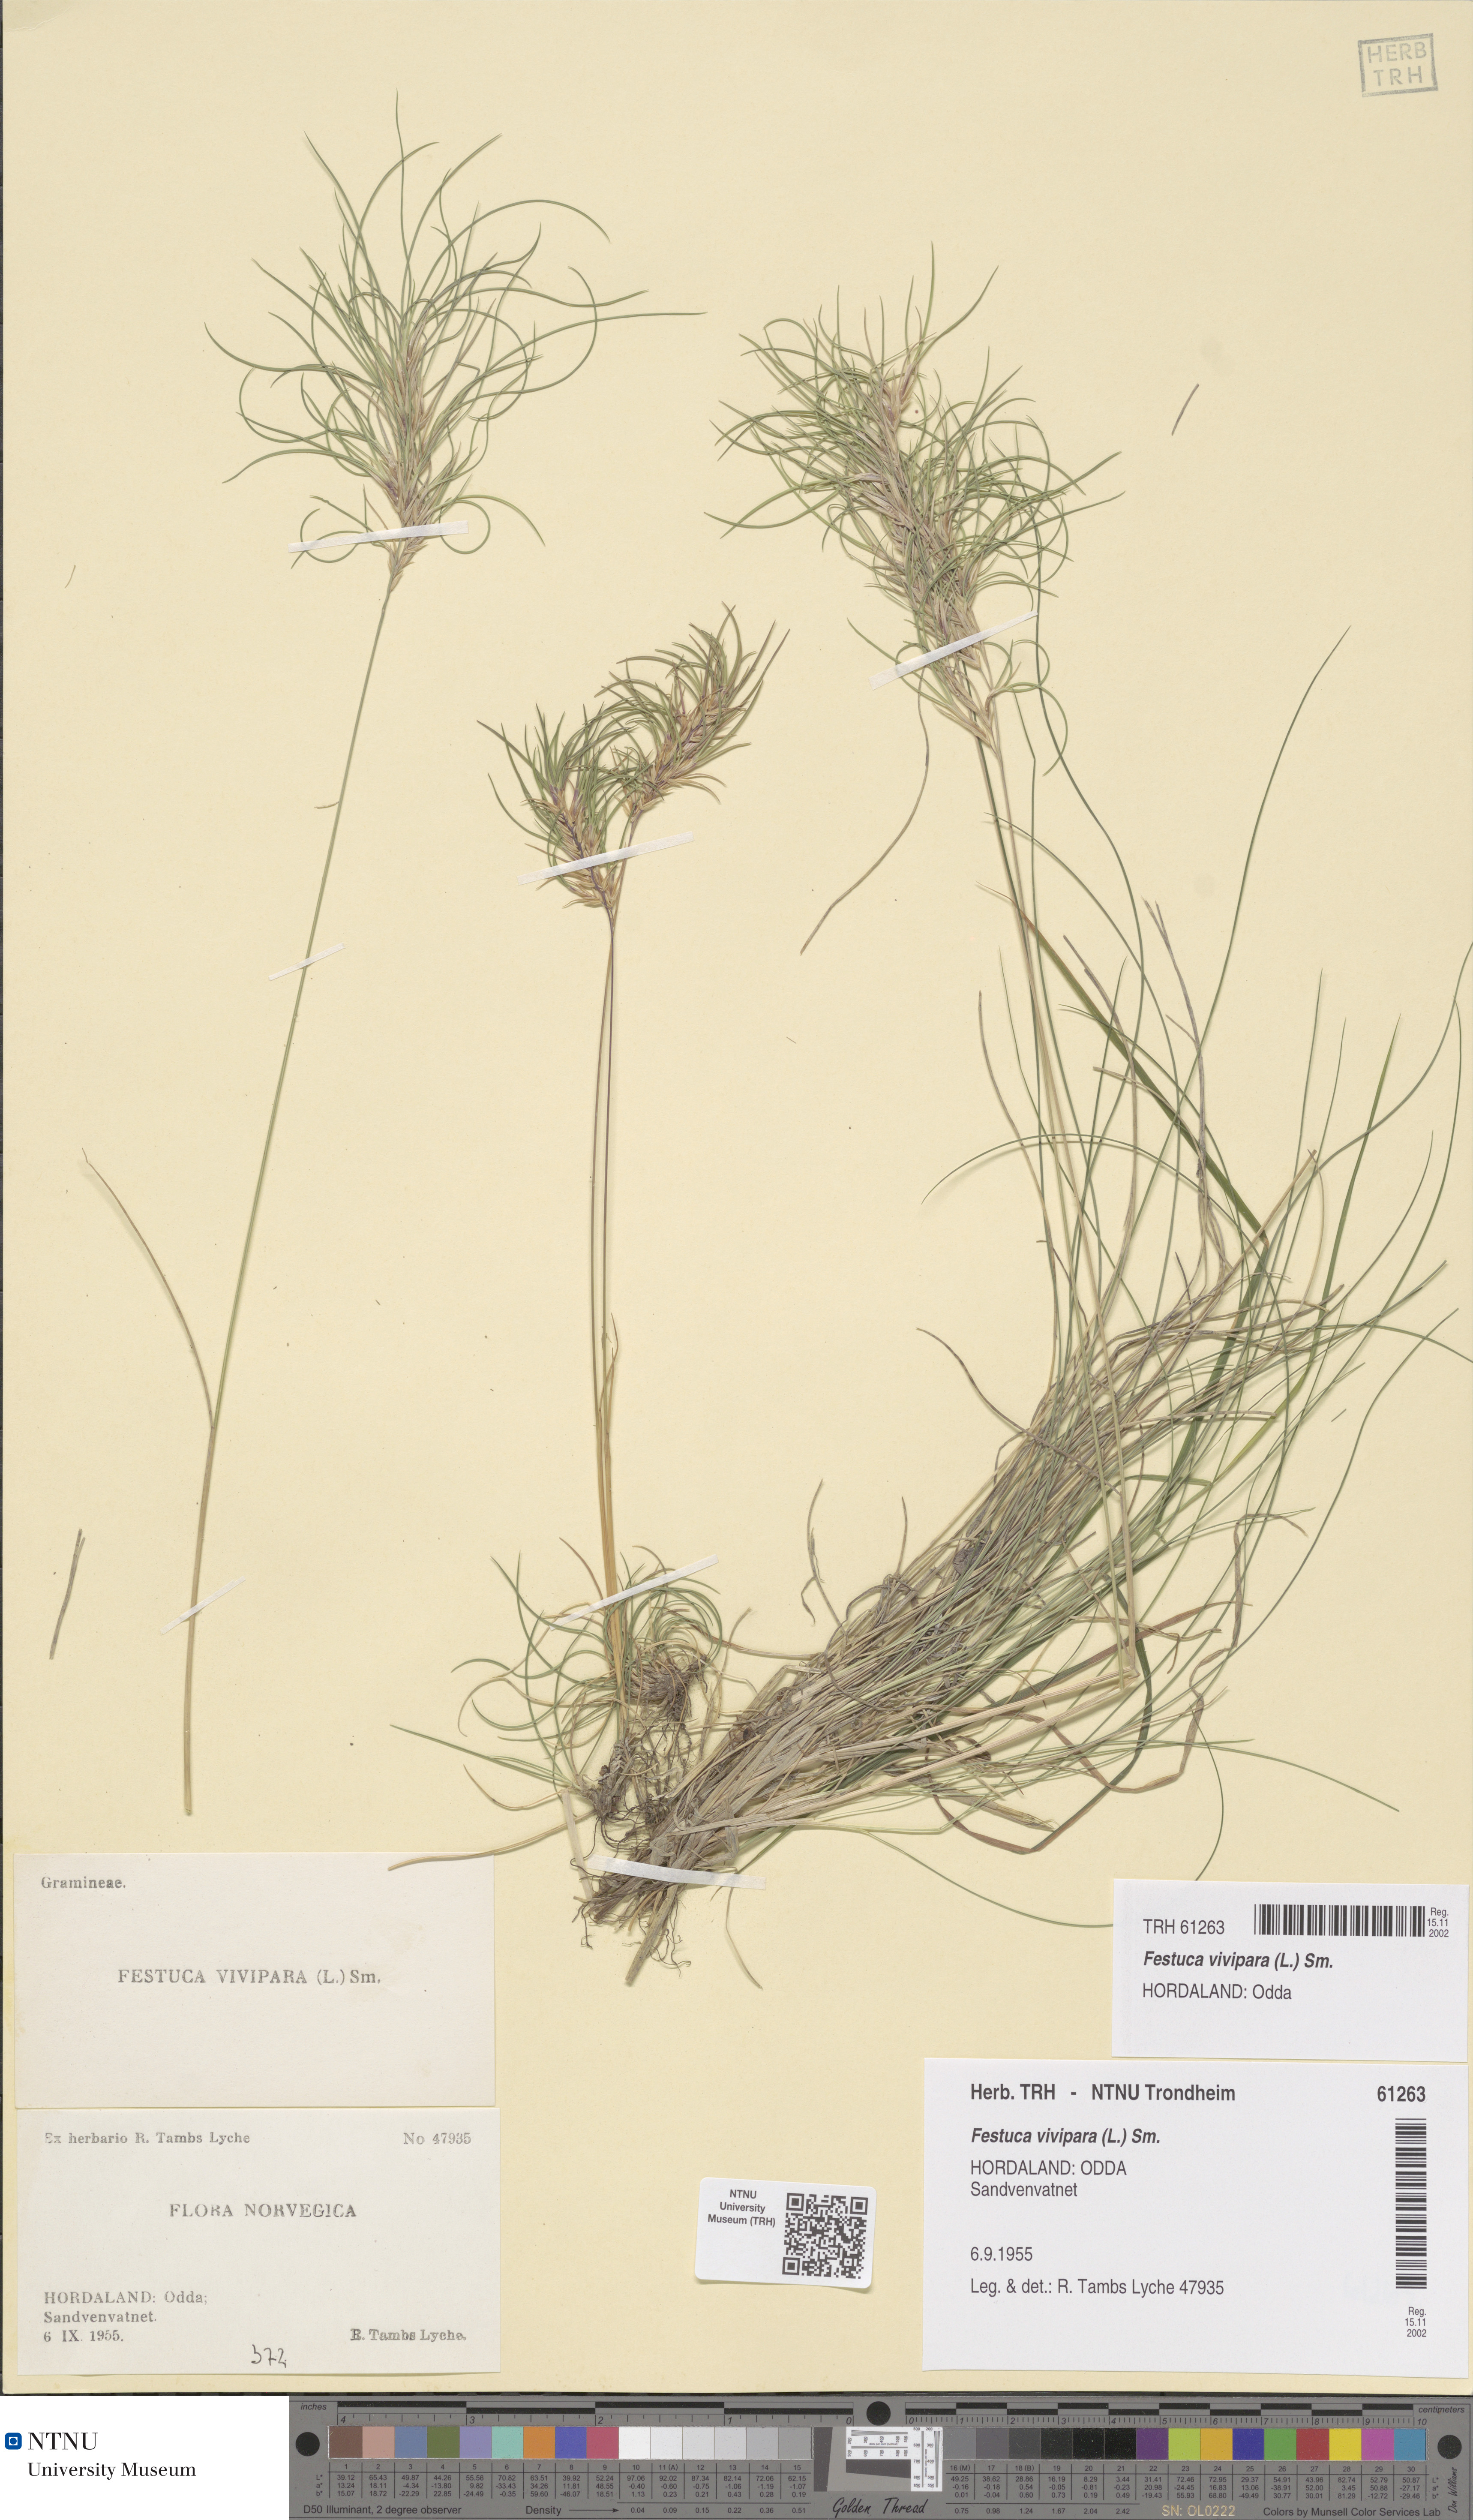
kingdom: Plantae
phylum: Tracheophyta
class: Liliopsida
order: Poales
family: Poaceae
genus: Festuca
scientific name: Festuca vivipara
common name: Viviparous sheep's-fescue
